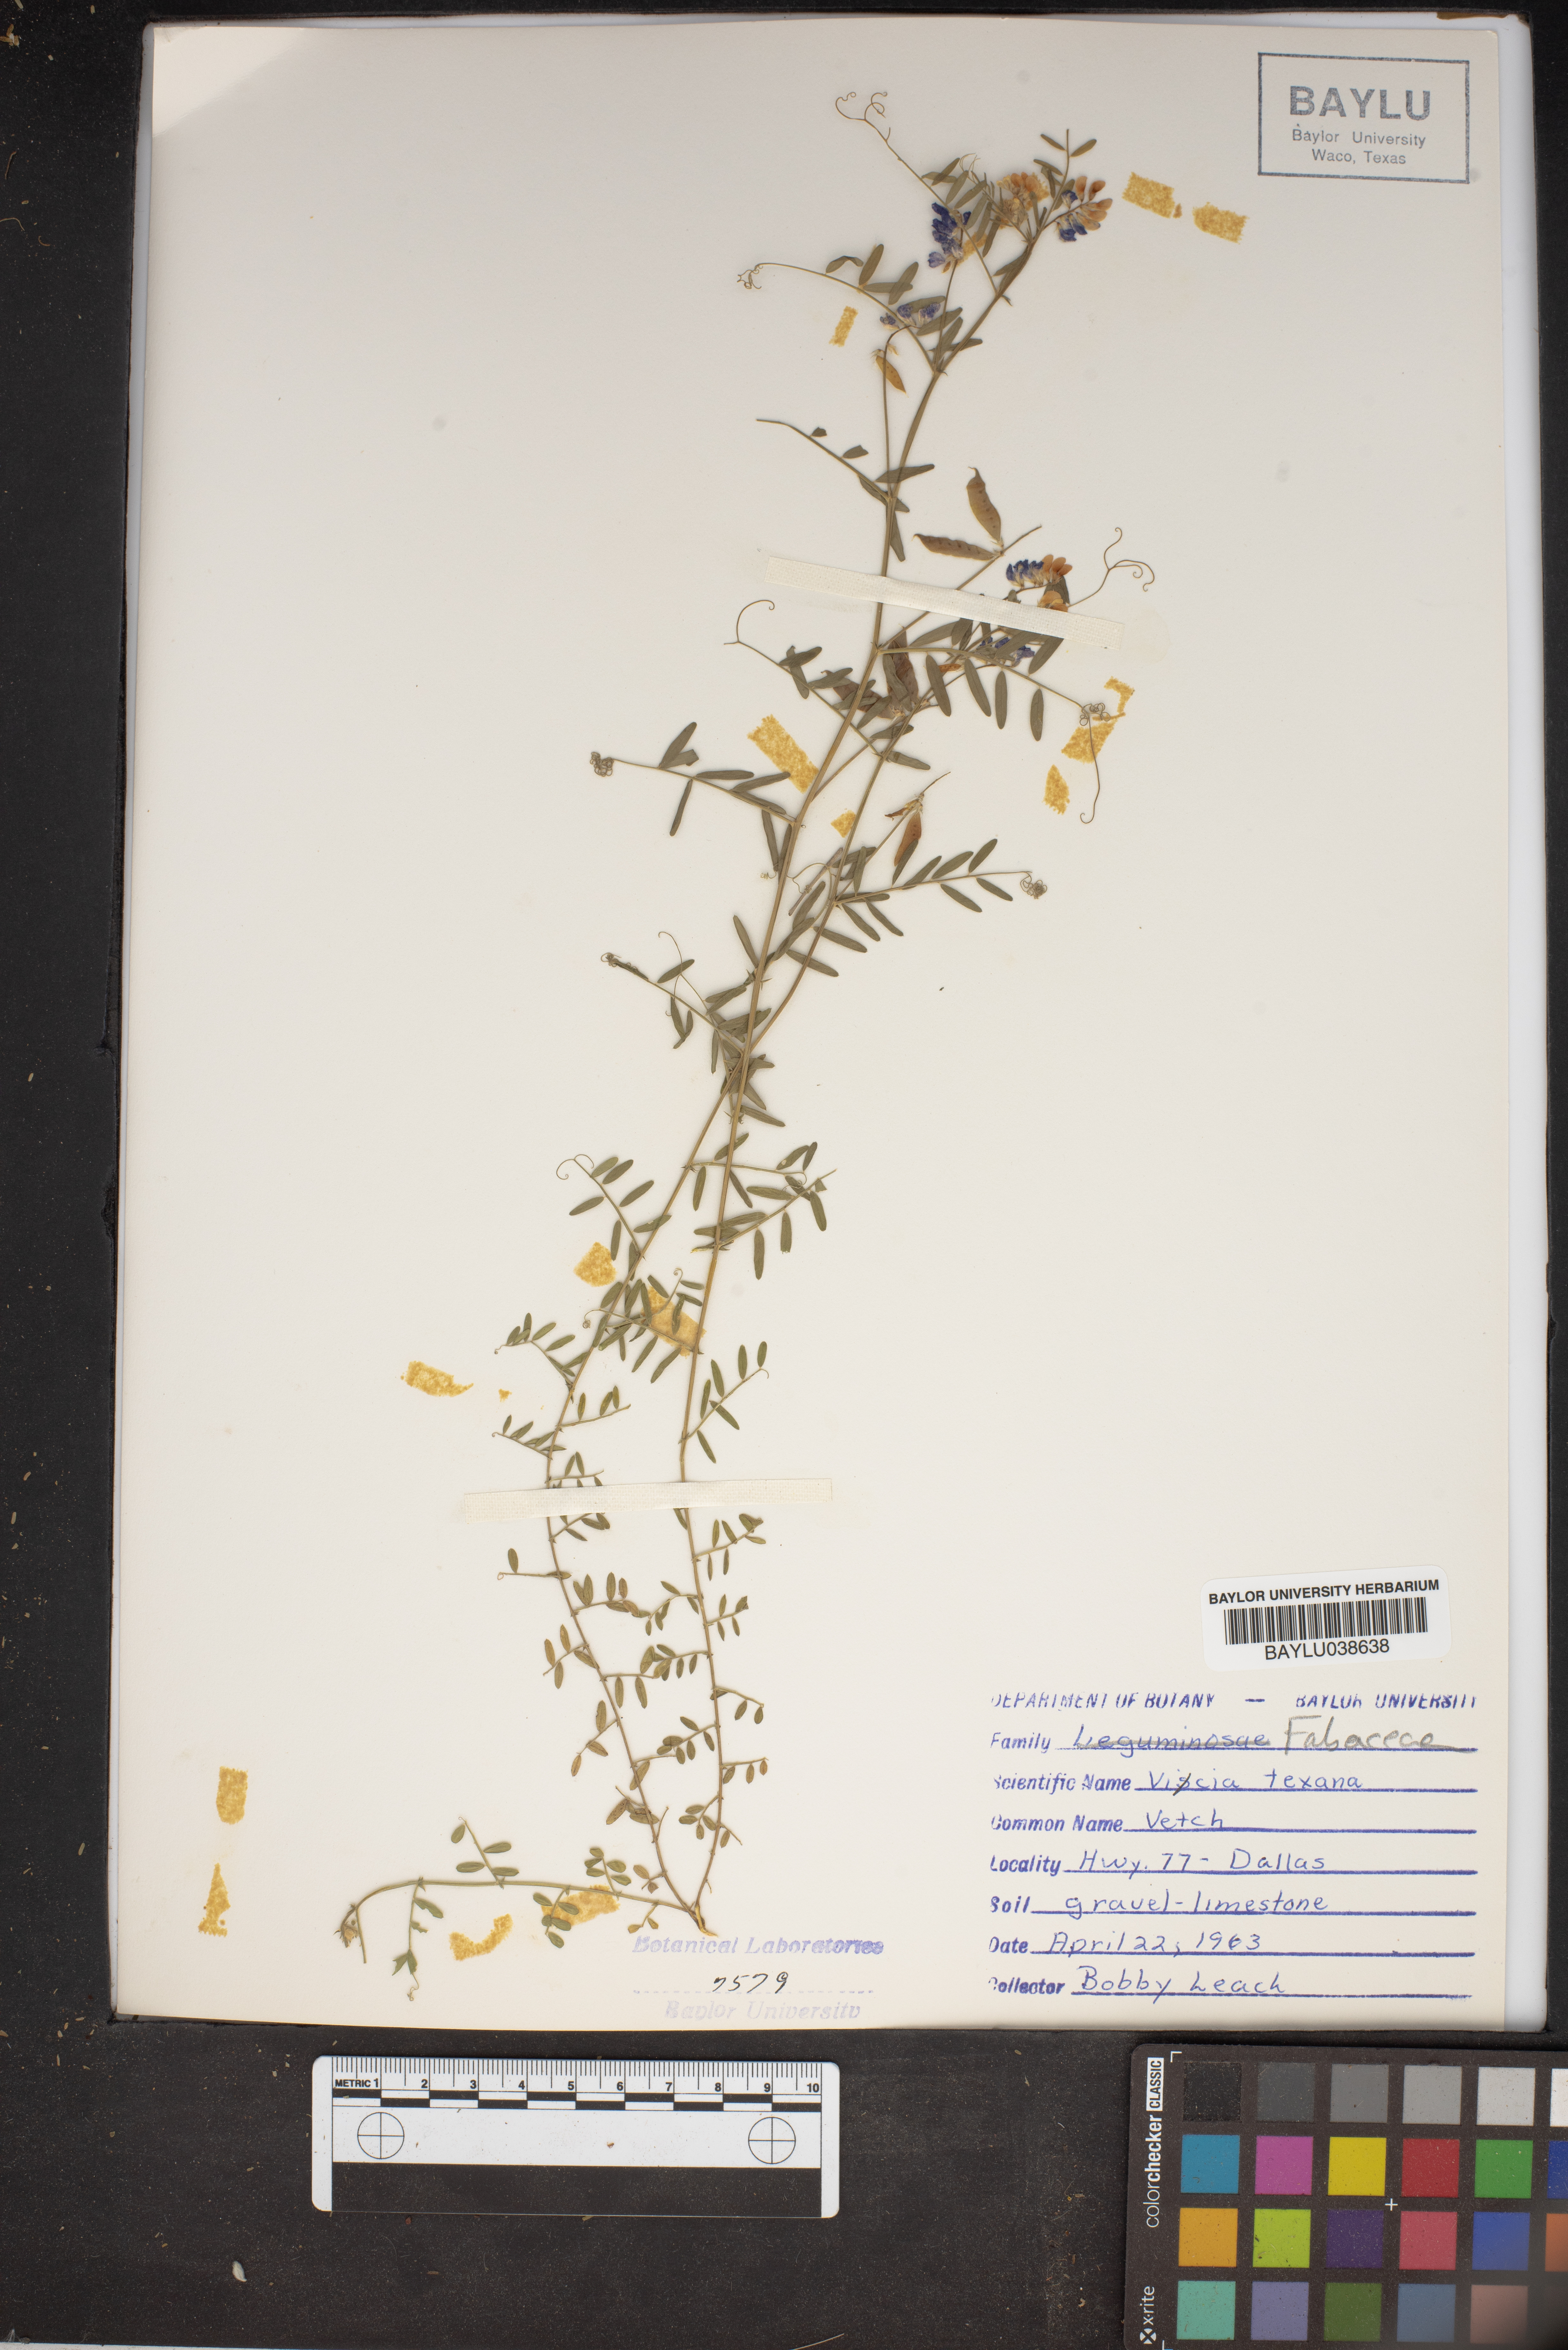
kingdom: Plantae
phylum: Tracheophyta
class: Magnoliopsida
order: Fabales
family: Fabaceae
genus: Vicia
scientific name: Vicia ludoviciana
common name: Louisiana vetch
